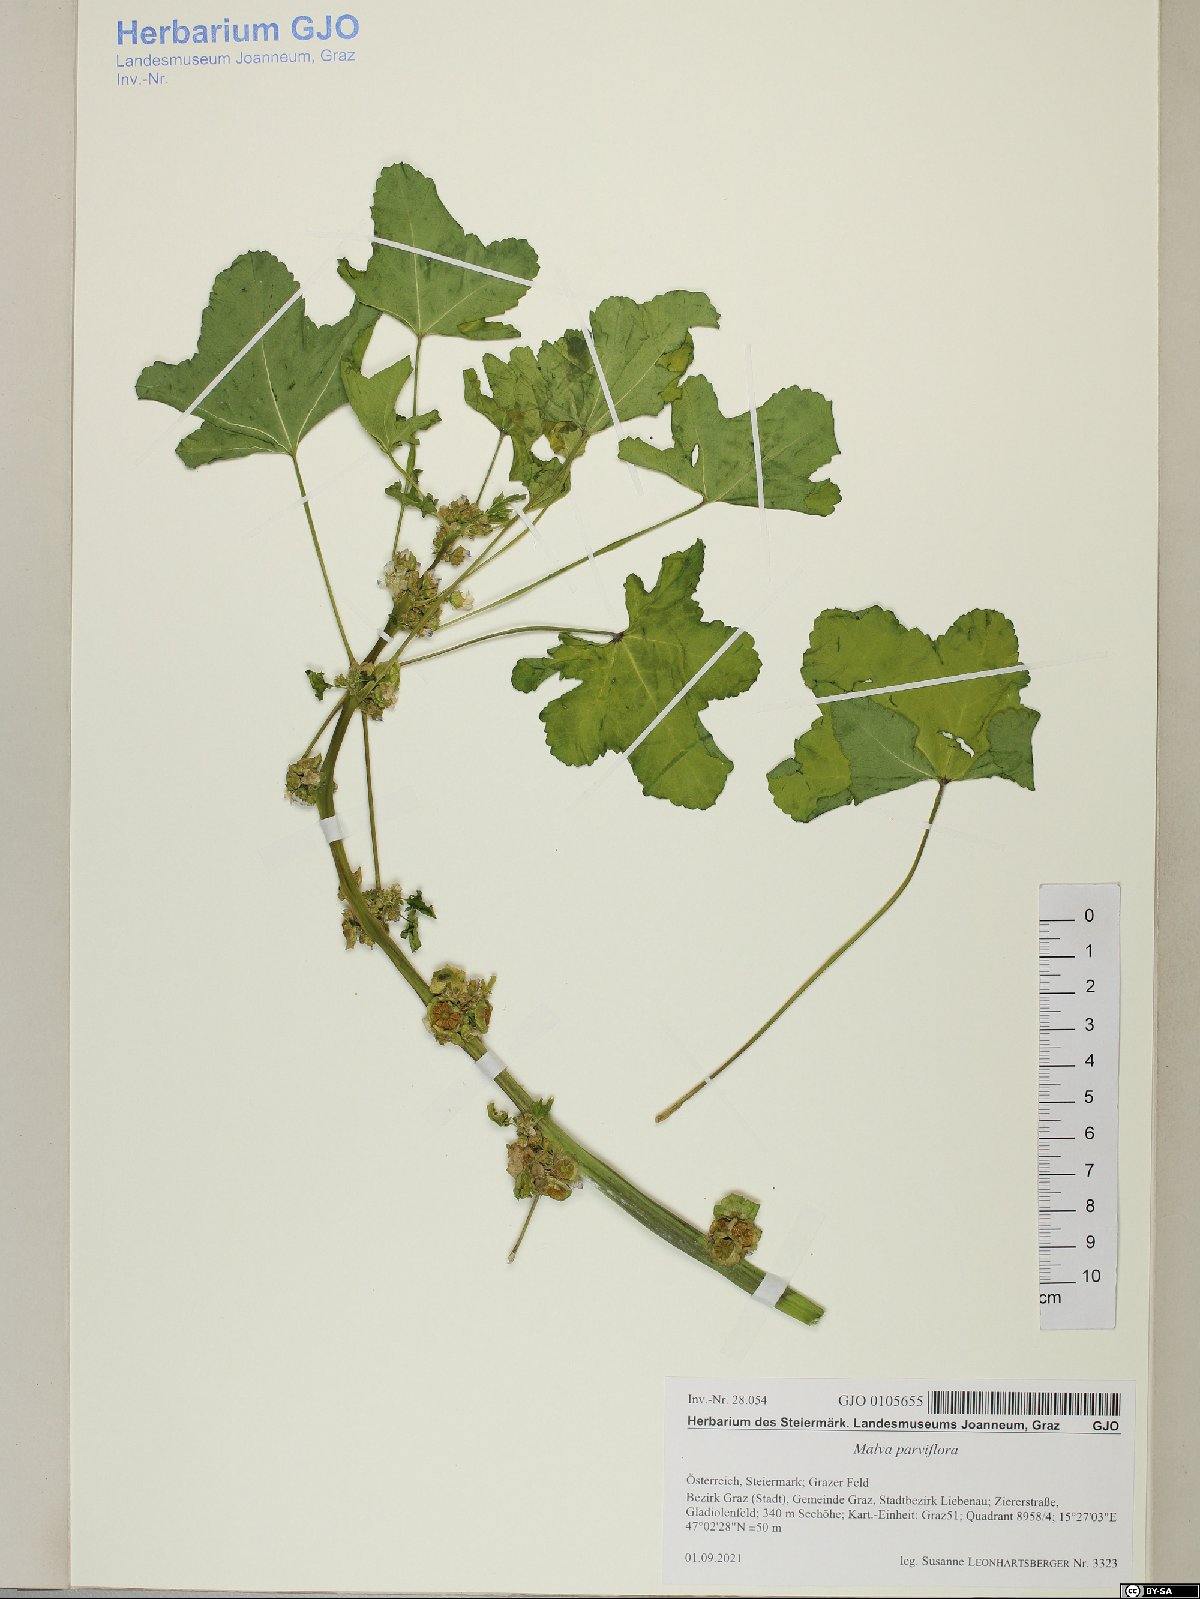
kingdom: Plantae
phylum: Tracheophyta
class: Magnoliopsida
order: Malvales
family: Malvaceae
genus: Malva
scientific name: Malva parviflora
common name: Least mallow
